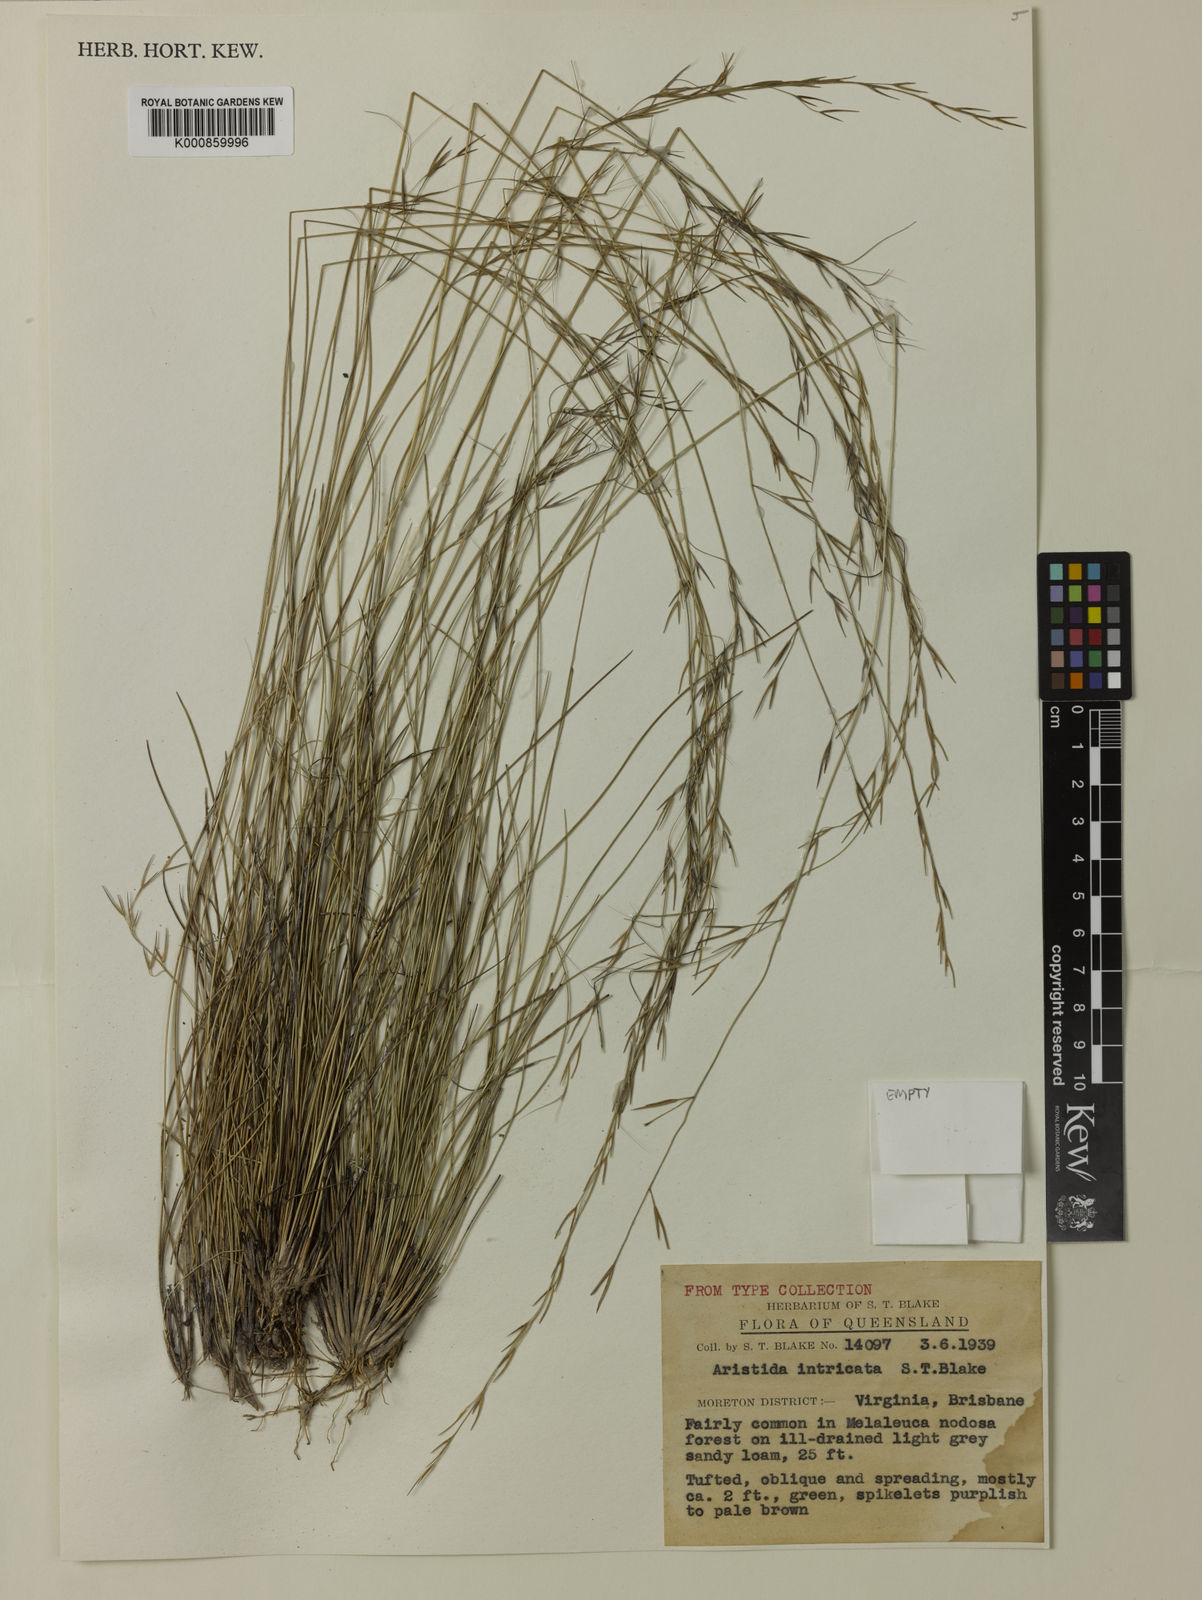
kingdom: Plantae
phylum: Tracheophyta
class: Liliopsida
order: Poales
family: Poaceae
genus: Aristida
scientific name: Aristida warburgii
